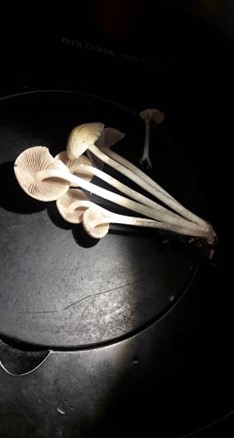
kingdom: Fungi
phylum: Basidiomycota
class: Agaricomycetes
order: Agaricales
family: Psathyrellaceae
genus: Candolleomyces
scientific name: Candolleomyces candolleanus
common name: Candolles mørkhat
